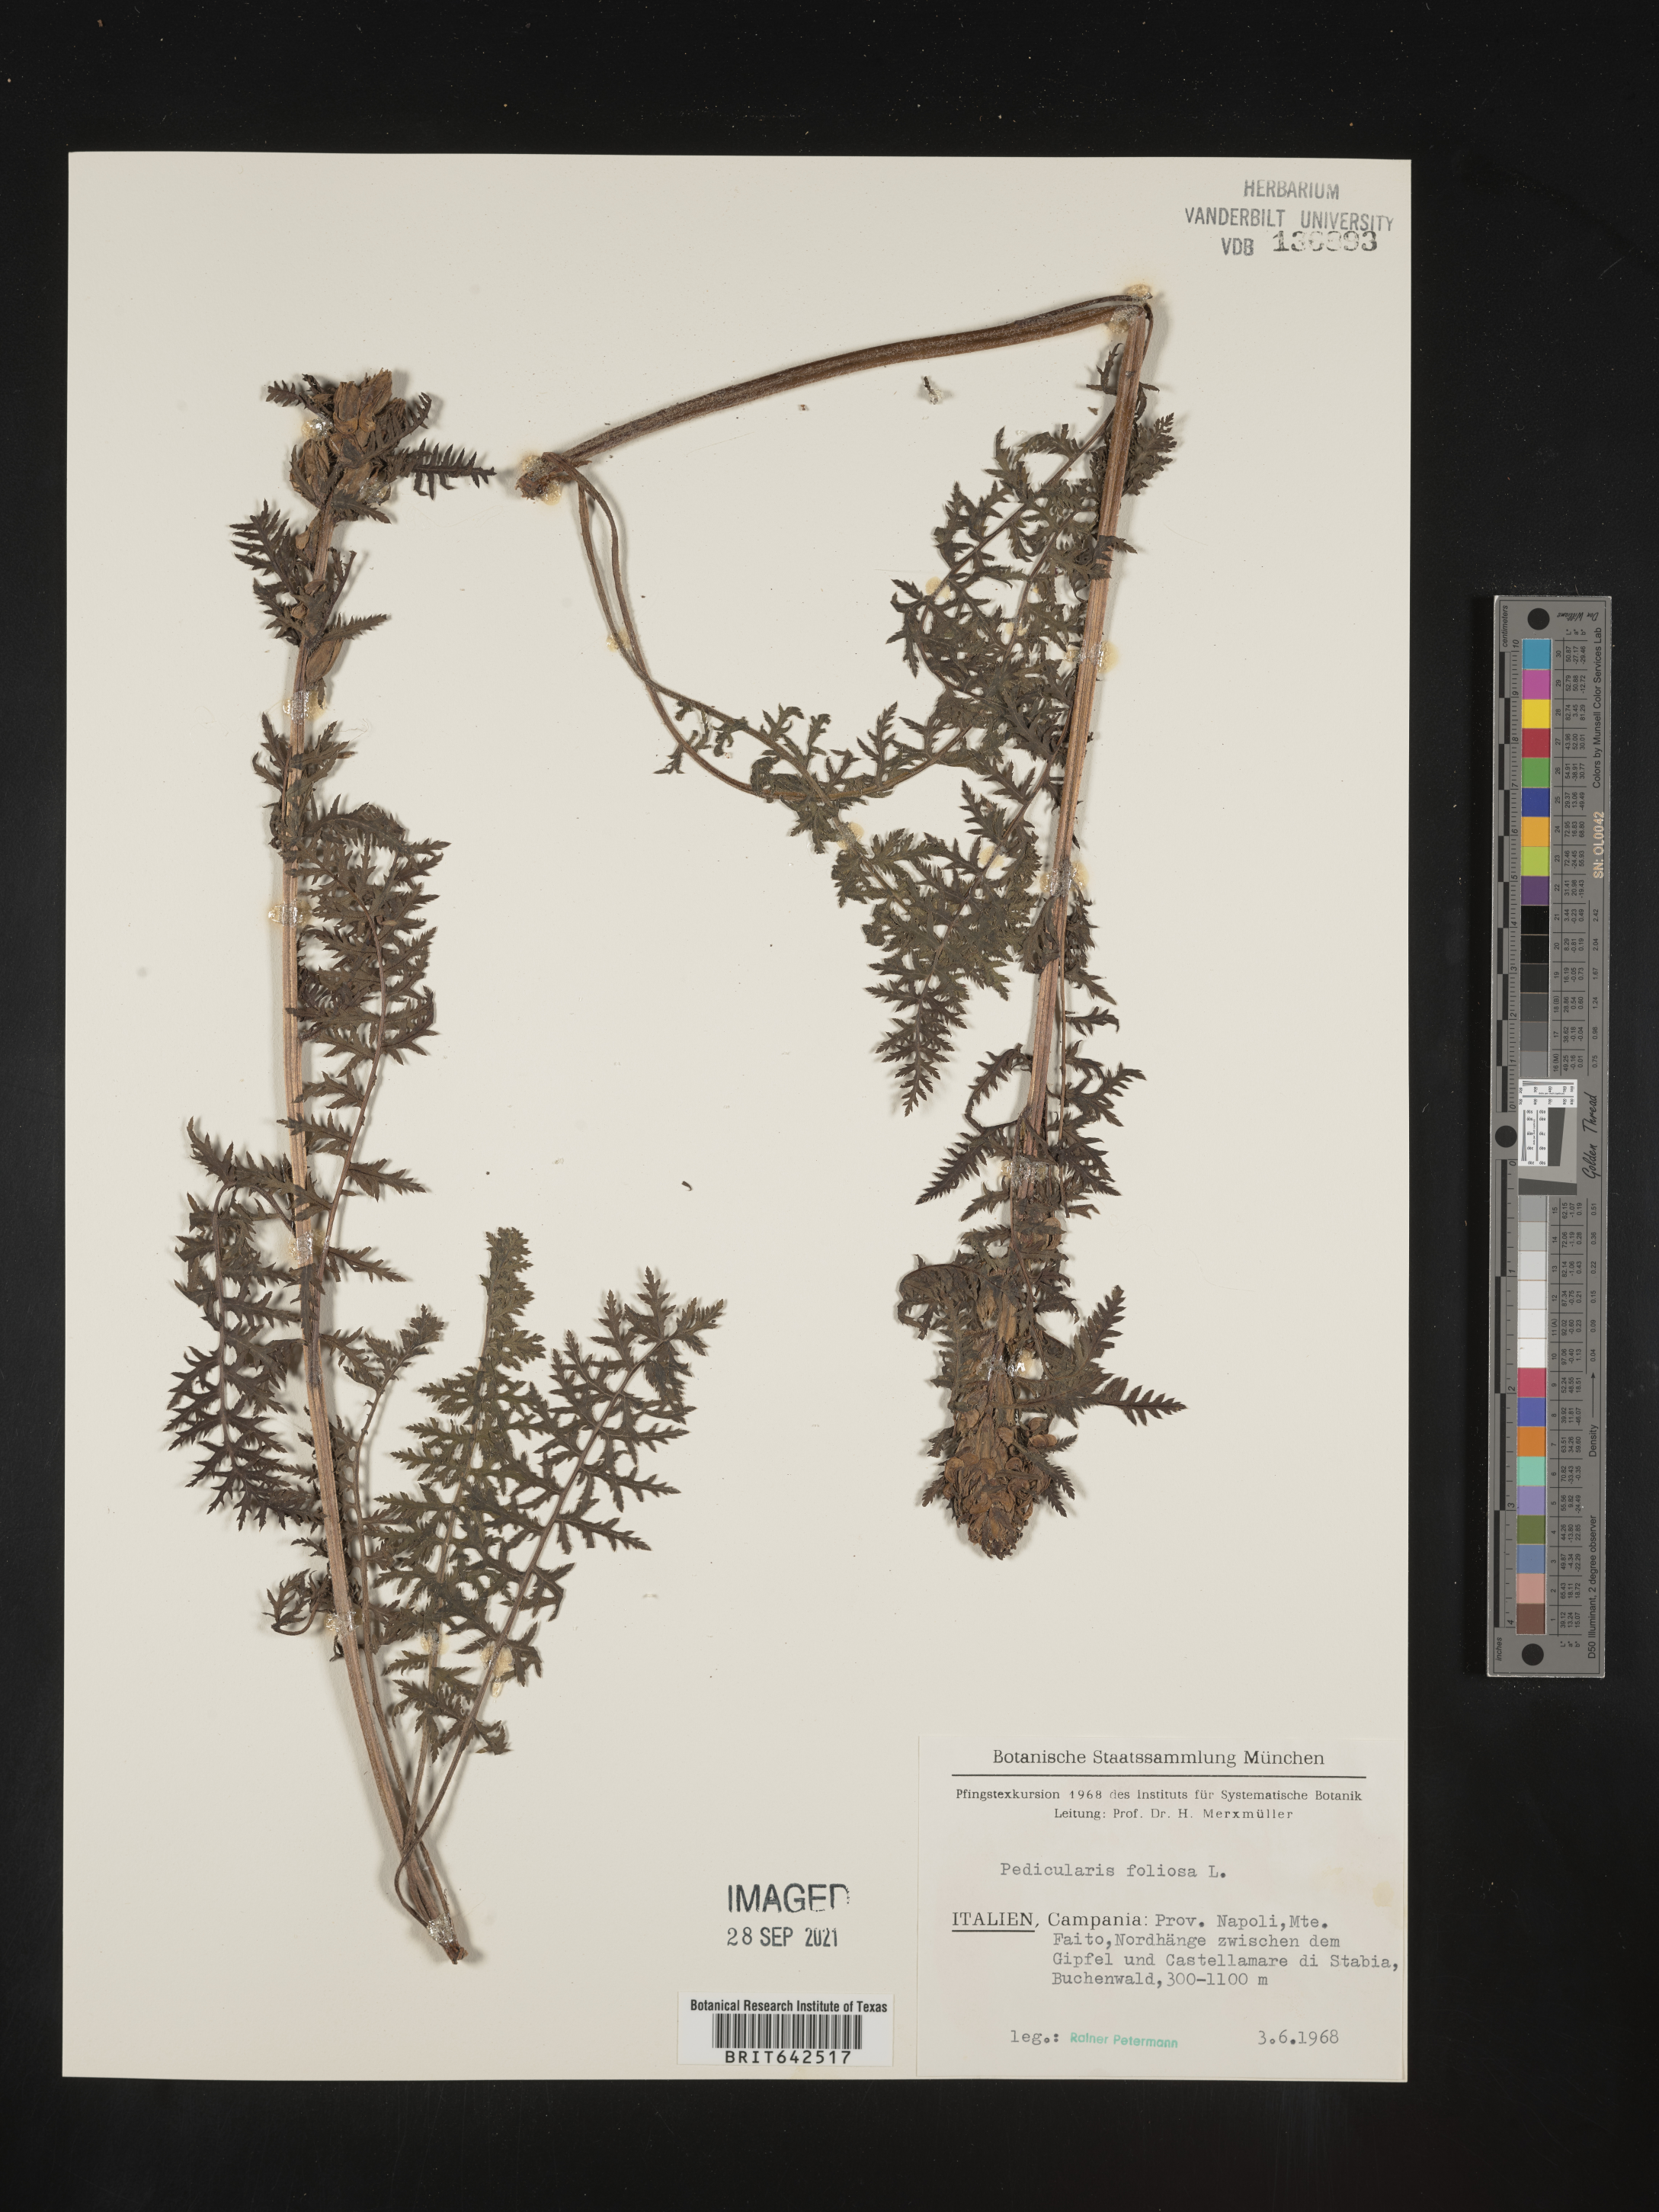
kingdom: Plantae
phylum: Tracheophyta
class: Magnoliopsida
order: Lamiales
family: Orobanchaceae
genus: Pedicularis
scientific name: Pedicularis
